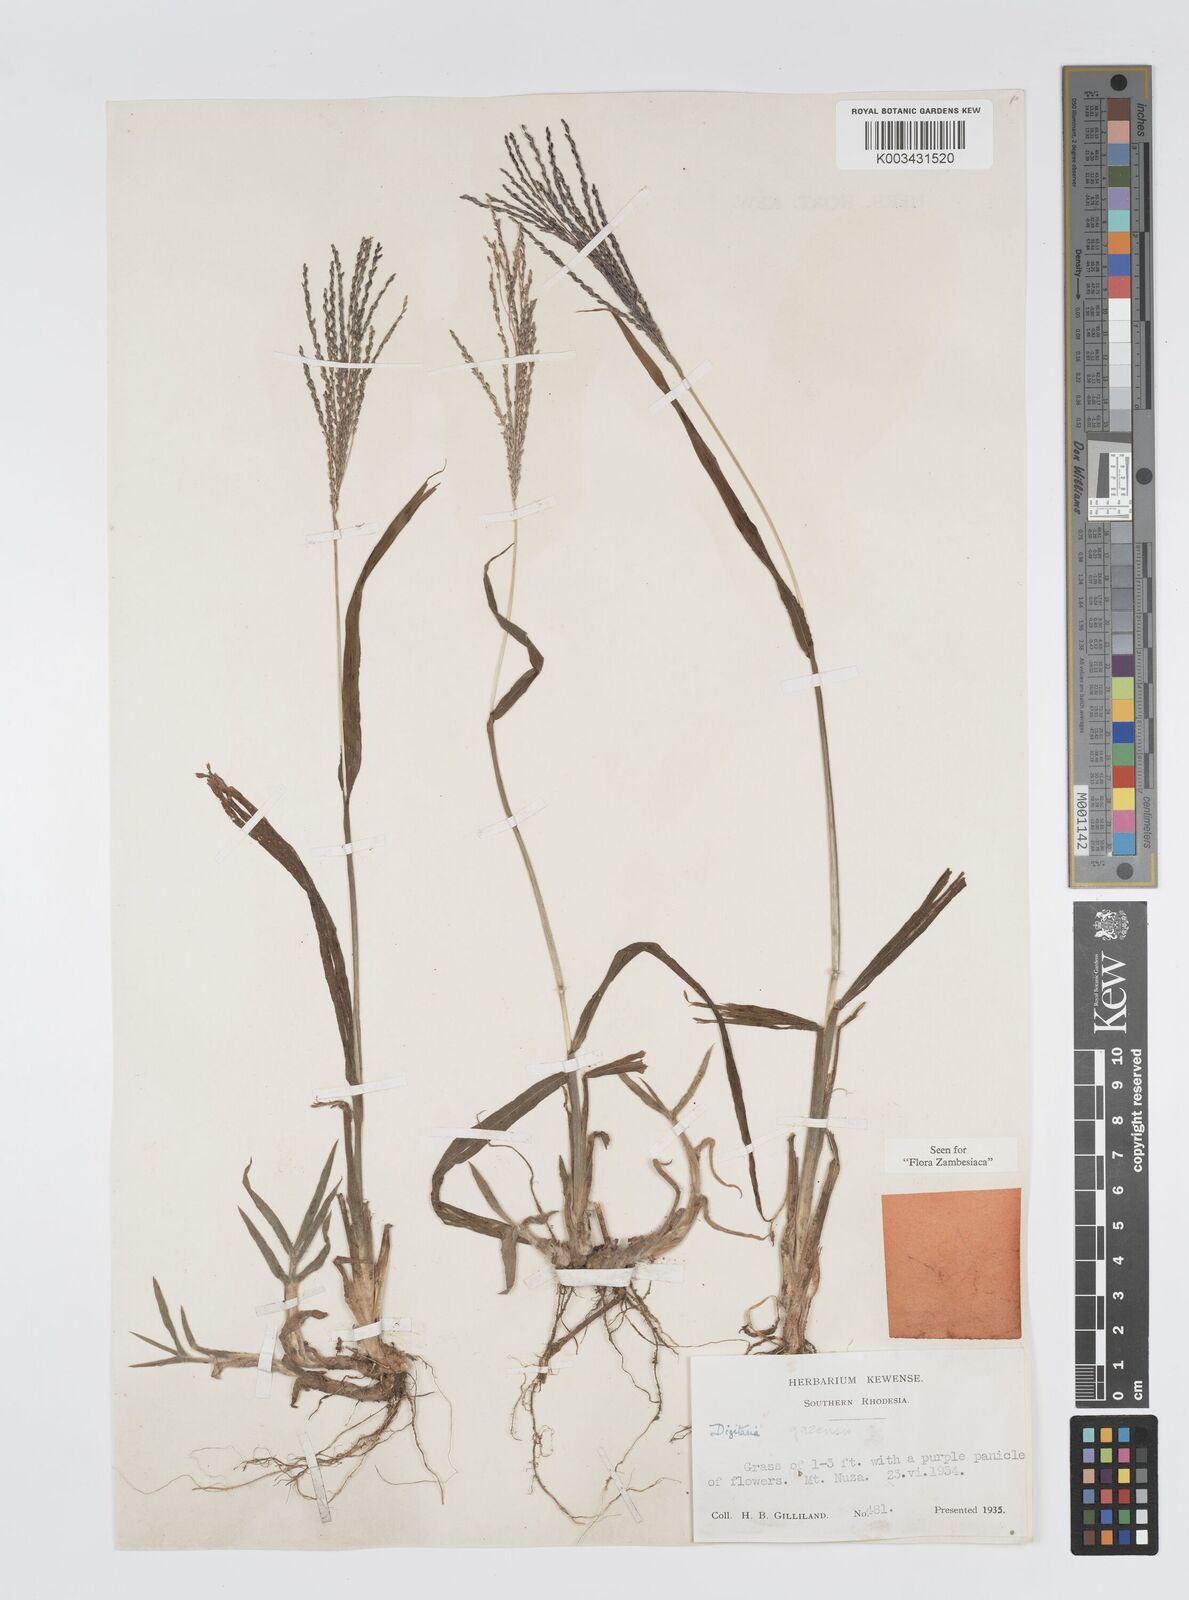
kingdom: Plantae
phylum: Tracheophyta
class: Liliopsida
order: Poales
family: Poaceae
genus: Digitaria
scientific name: Digitaria gazensis
